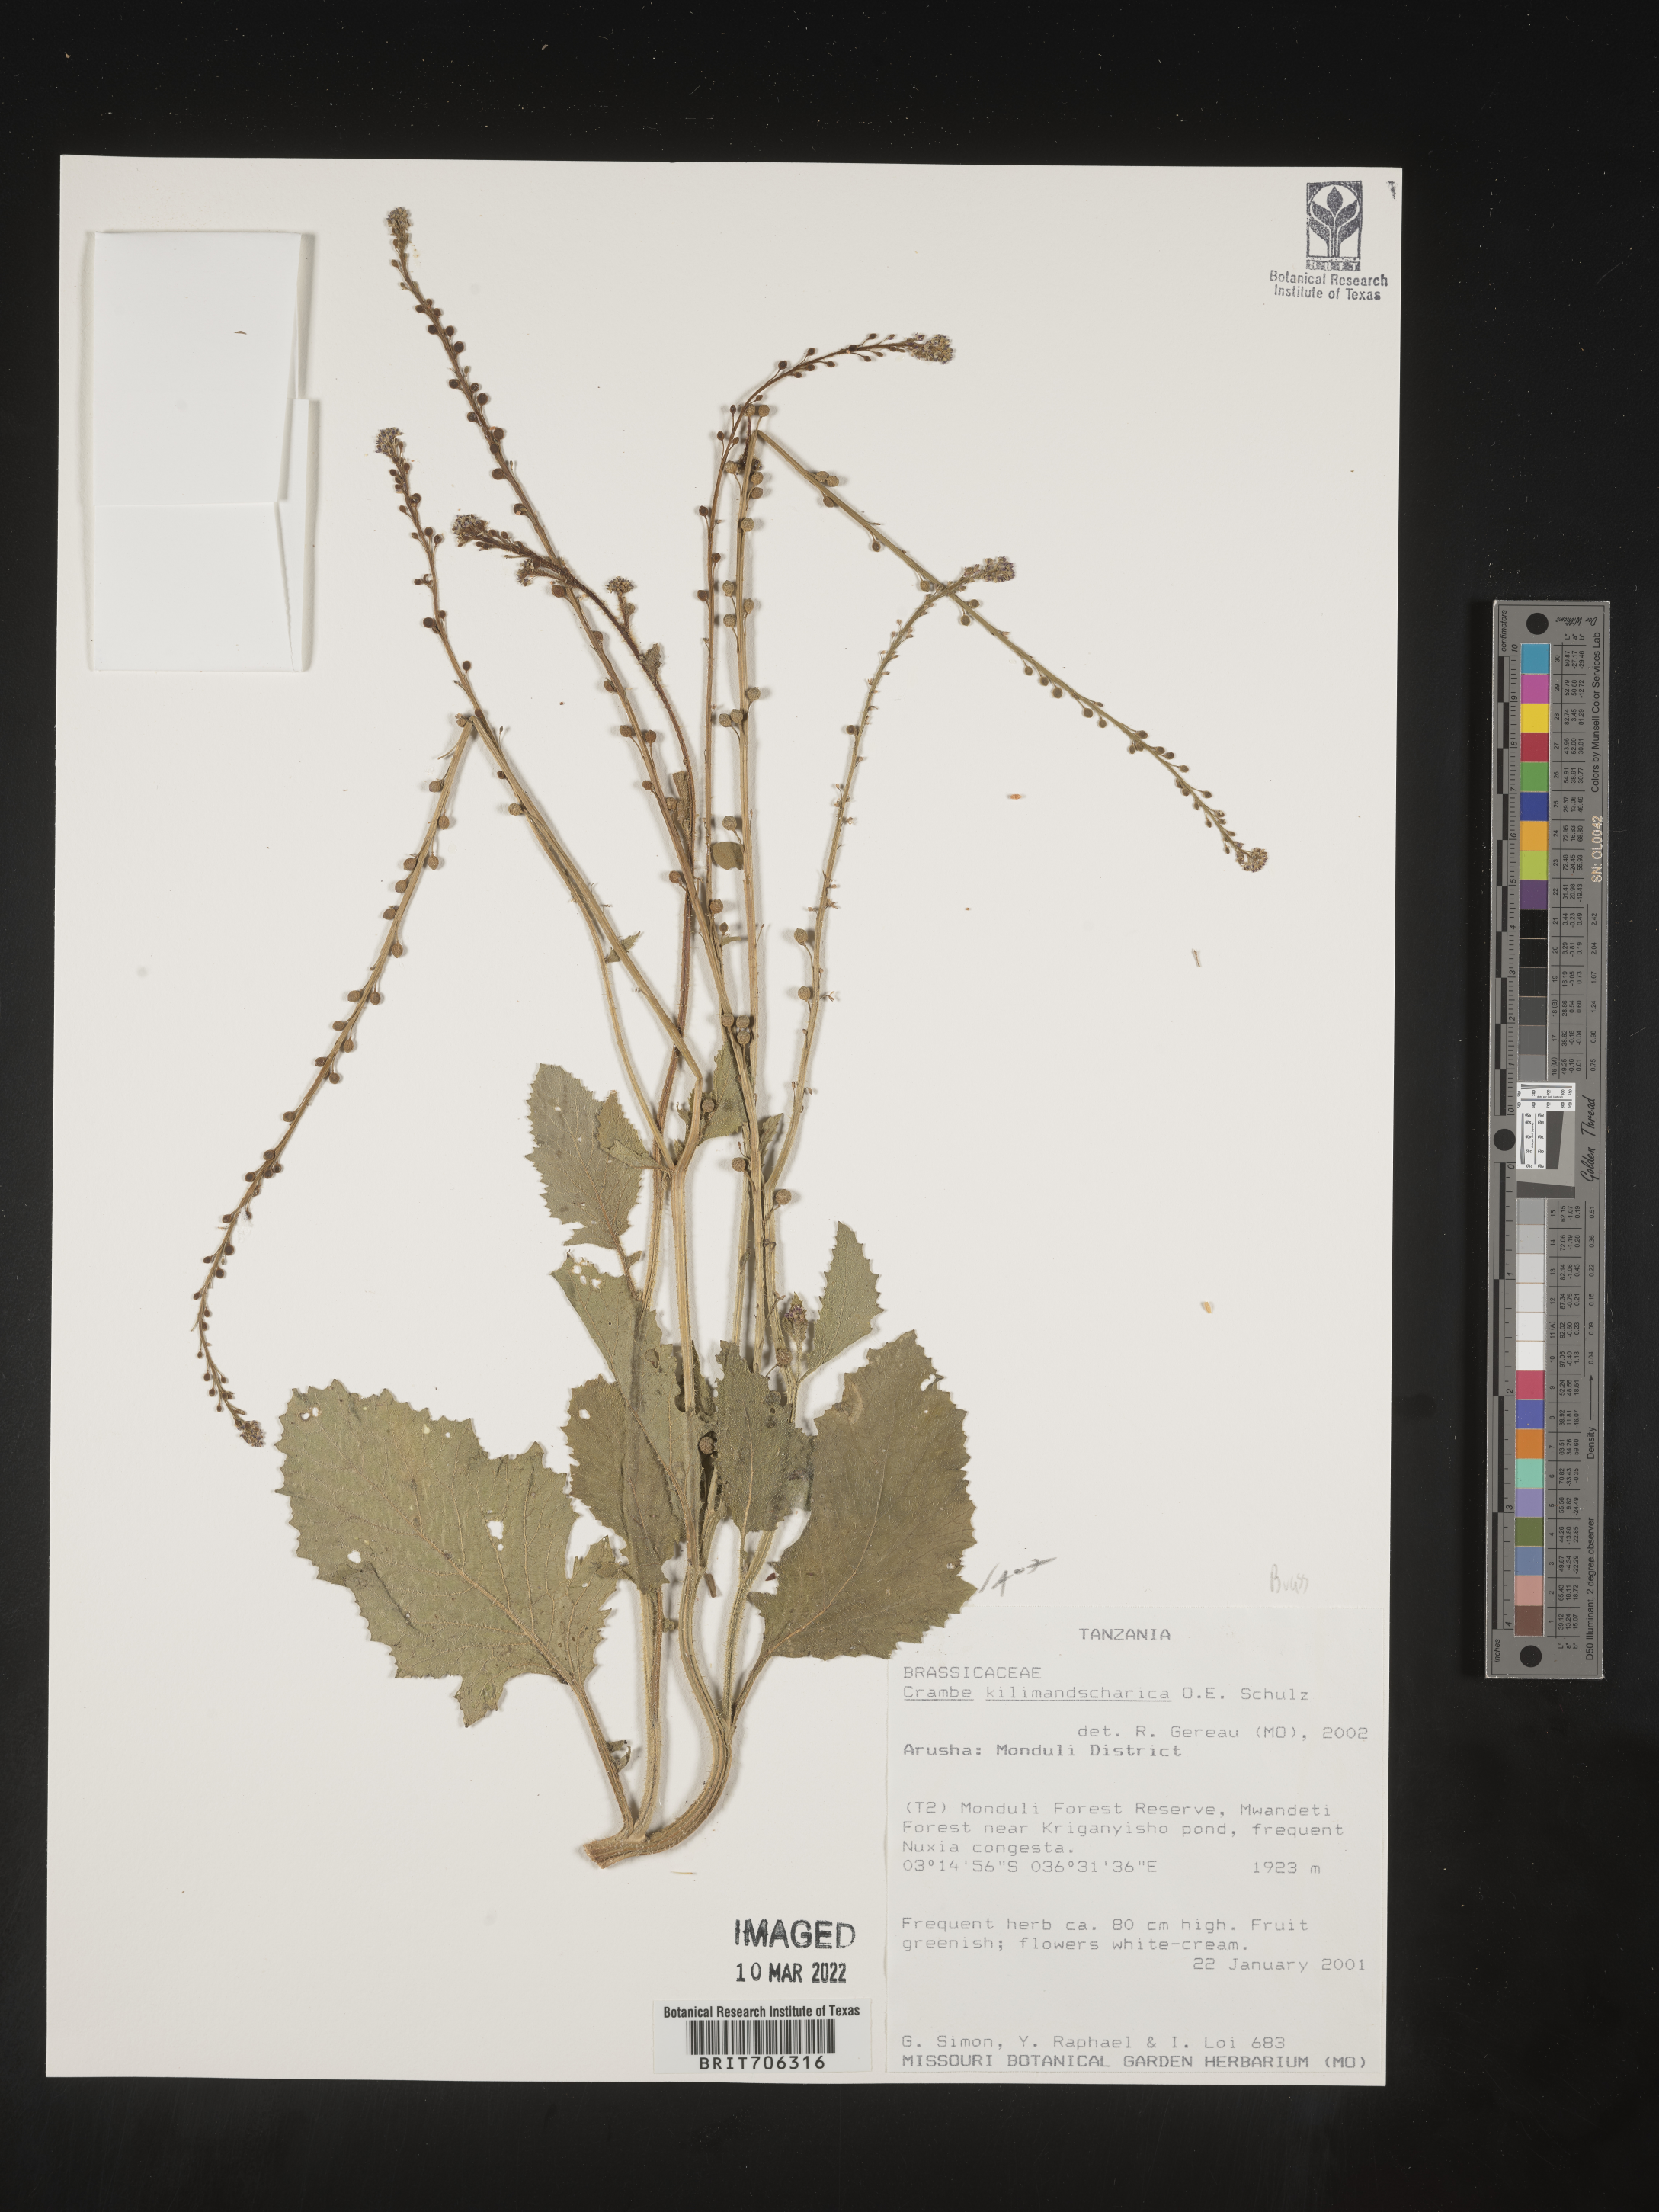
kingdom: Plantae
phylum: Tracheophyta
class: Magnoliopsida
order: Brassicales
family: Brassicaceae
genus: Crambe
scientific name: Crambe
